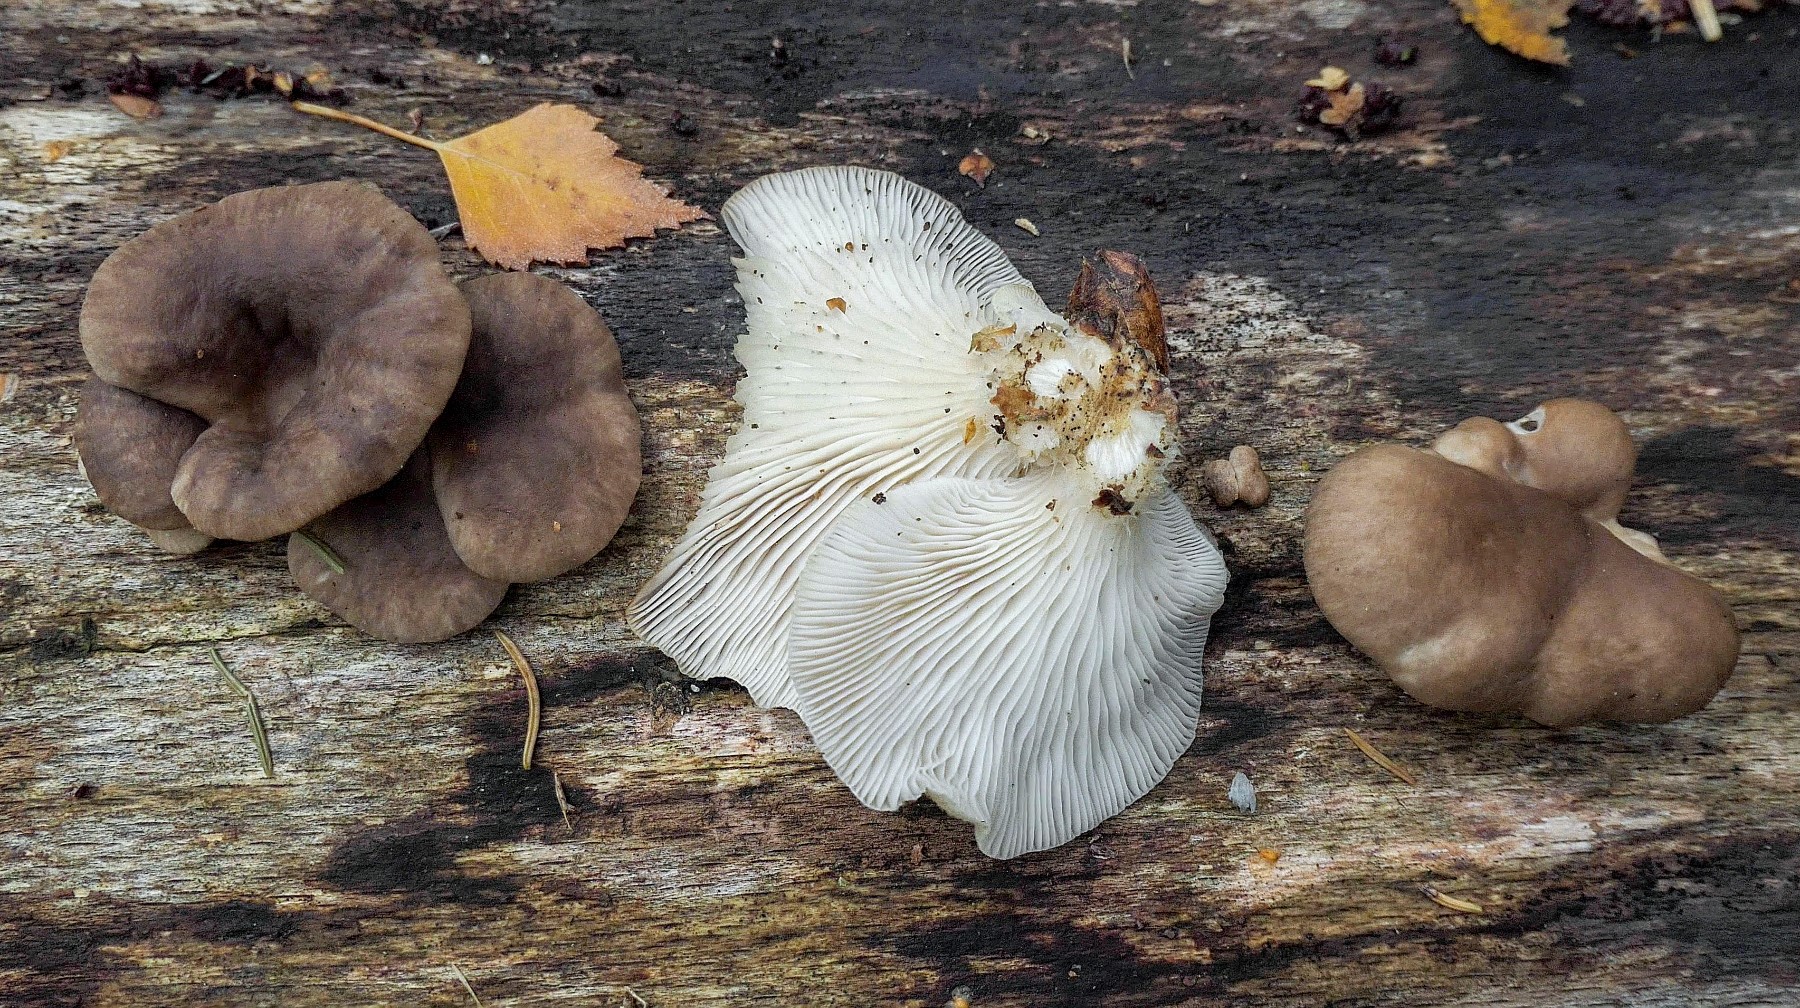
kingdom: Fungi
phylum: Basidiomycota
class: Agaricomycetes
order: Agaricales
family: Pleurotaceae
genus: Pleurotus
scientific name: Pleurotus ostreatus
